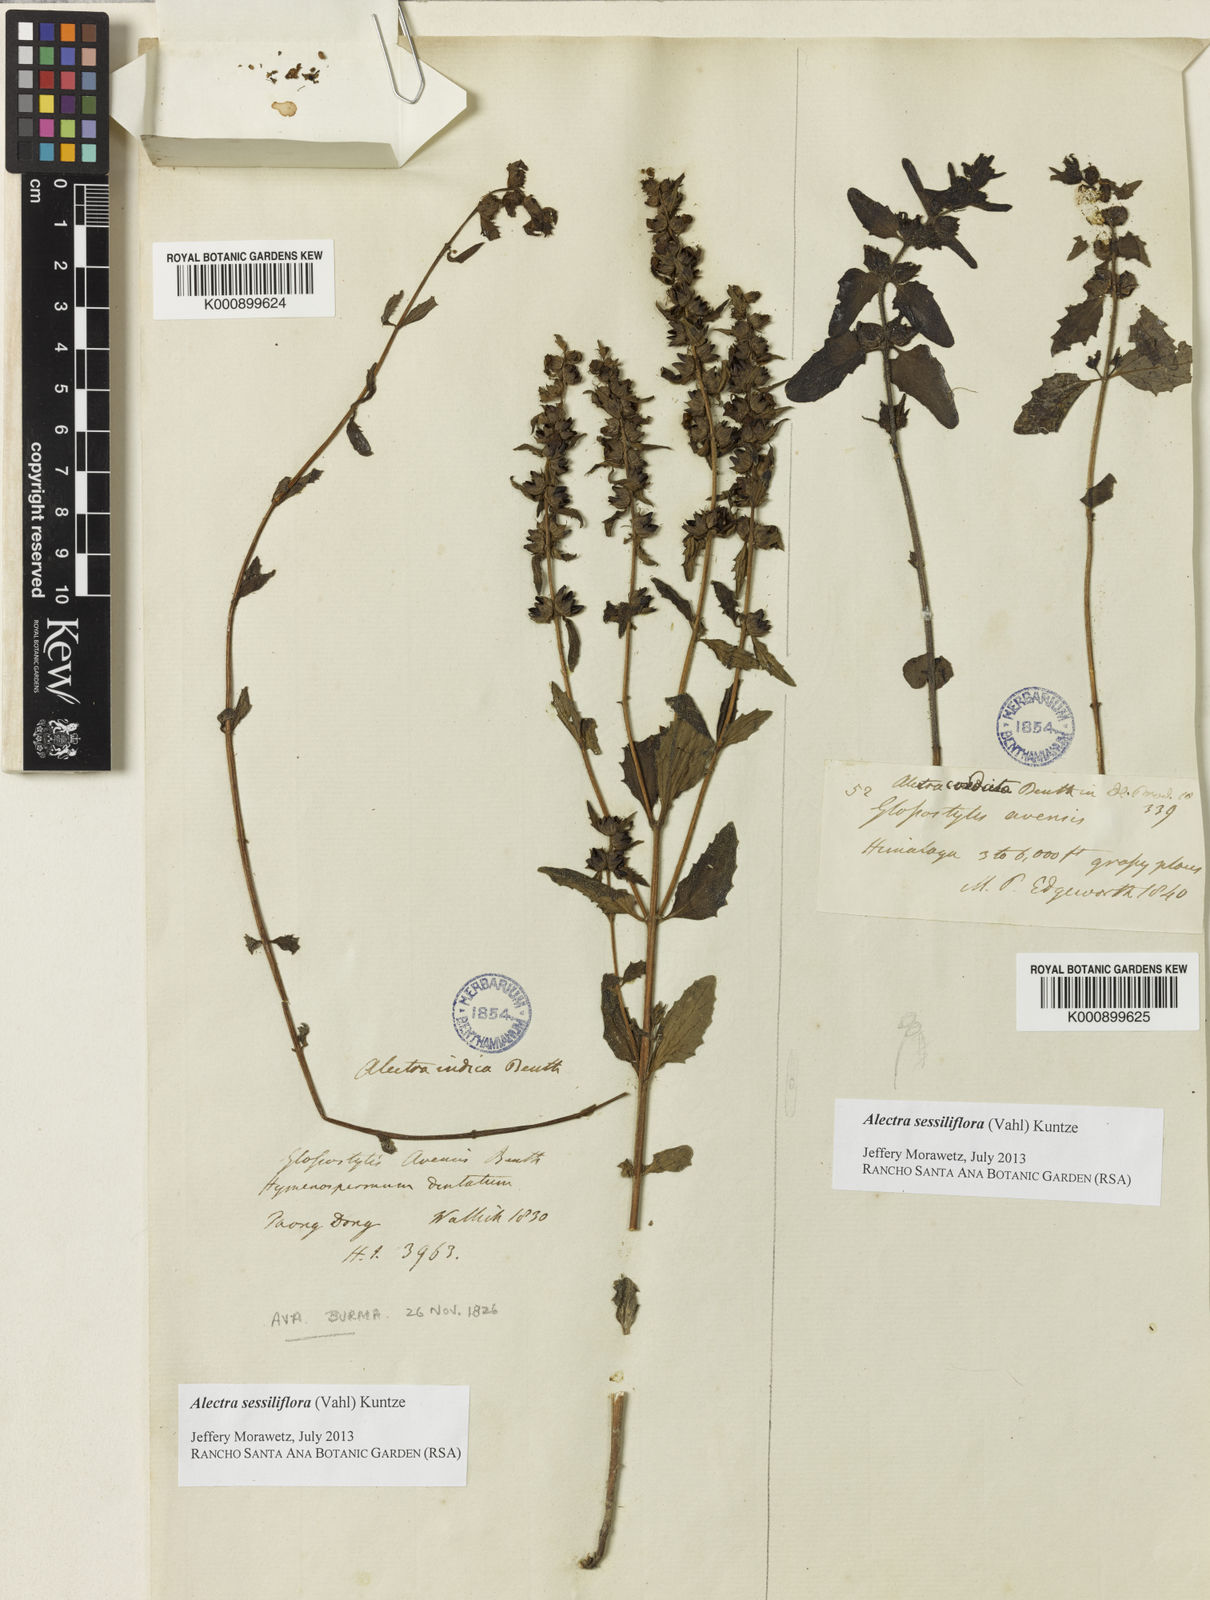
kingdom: Plantae
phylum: Tracheophyta
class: Magnoliopsida
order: Lamiales
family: Orobanchaceae
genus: Alectra
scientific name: Alectra sessiliflora
